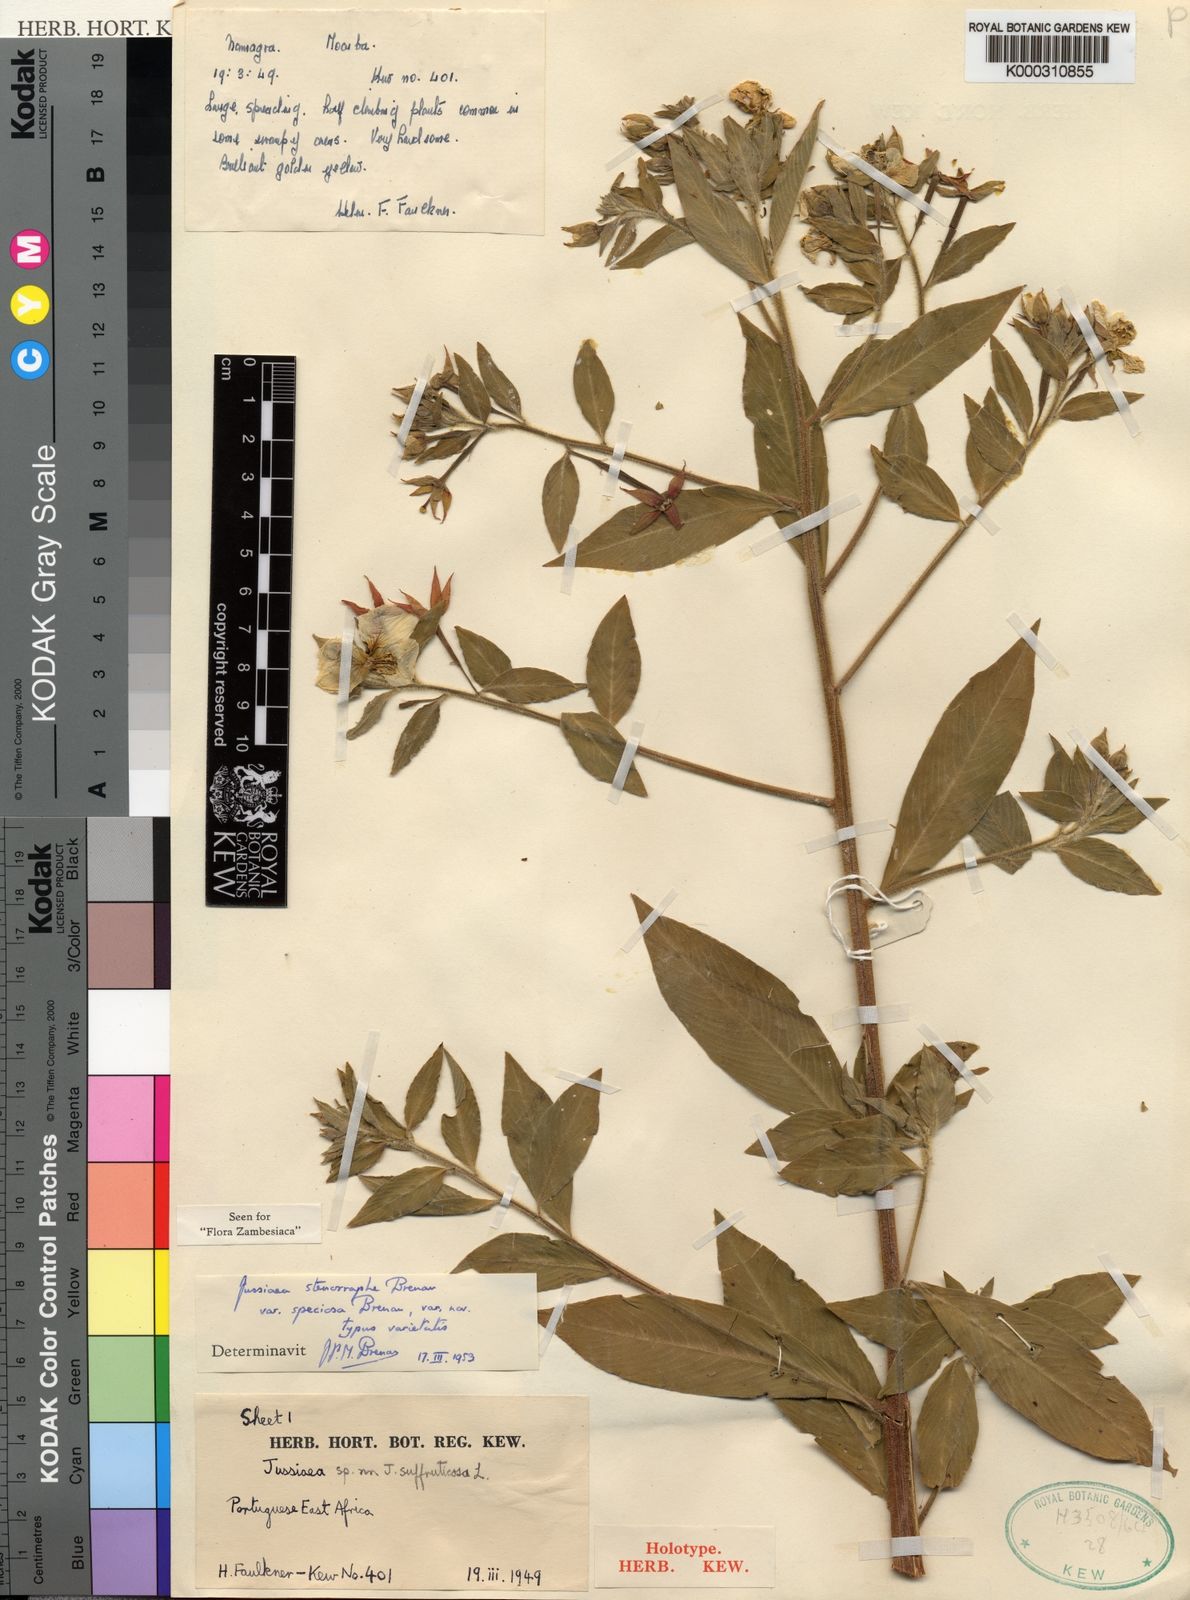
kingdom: Plantae
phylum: Tracheophyta
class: Magnoliopsida
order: Myrtales
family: Onagraceae
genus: Ludwigia
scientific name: Ludwigia speciosa
